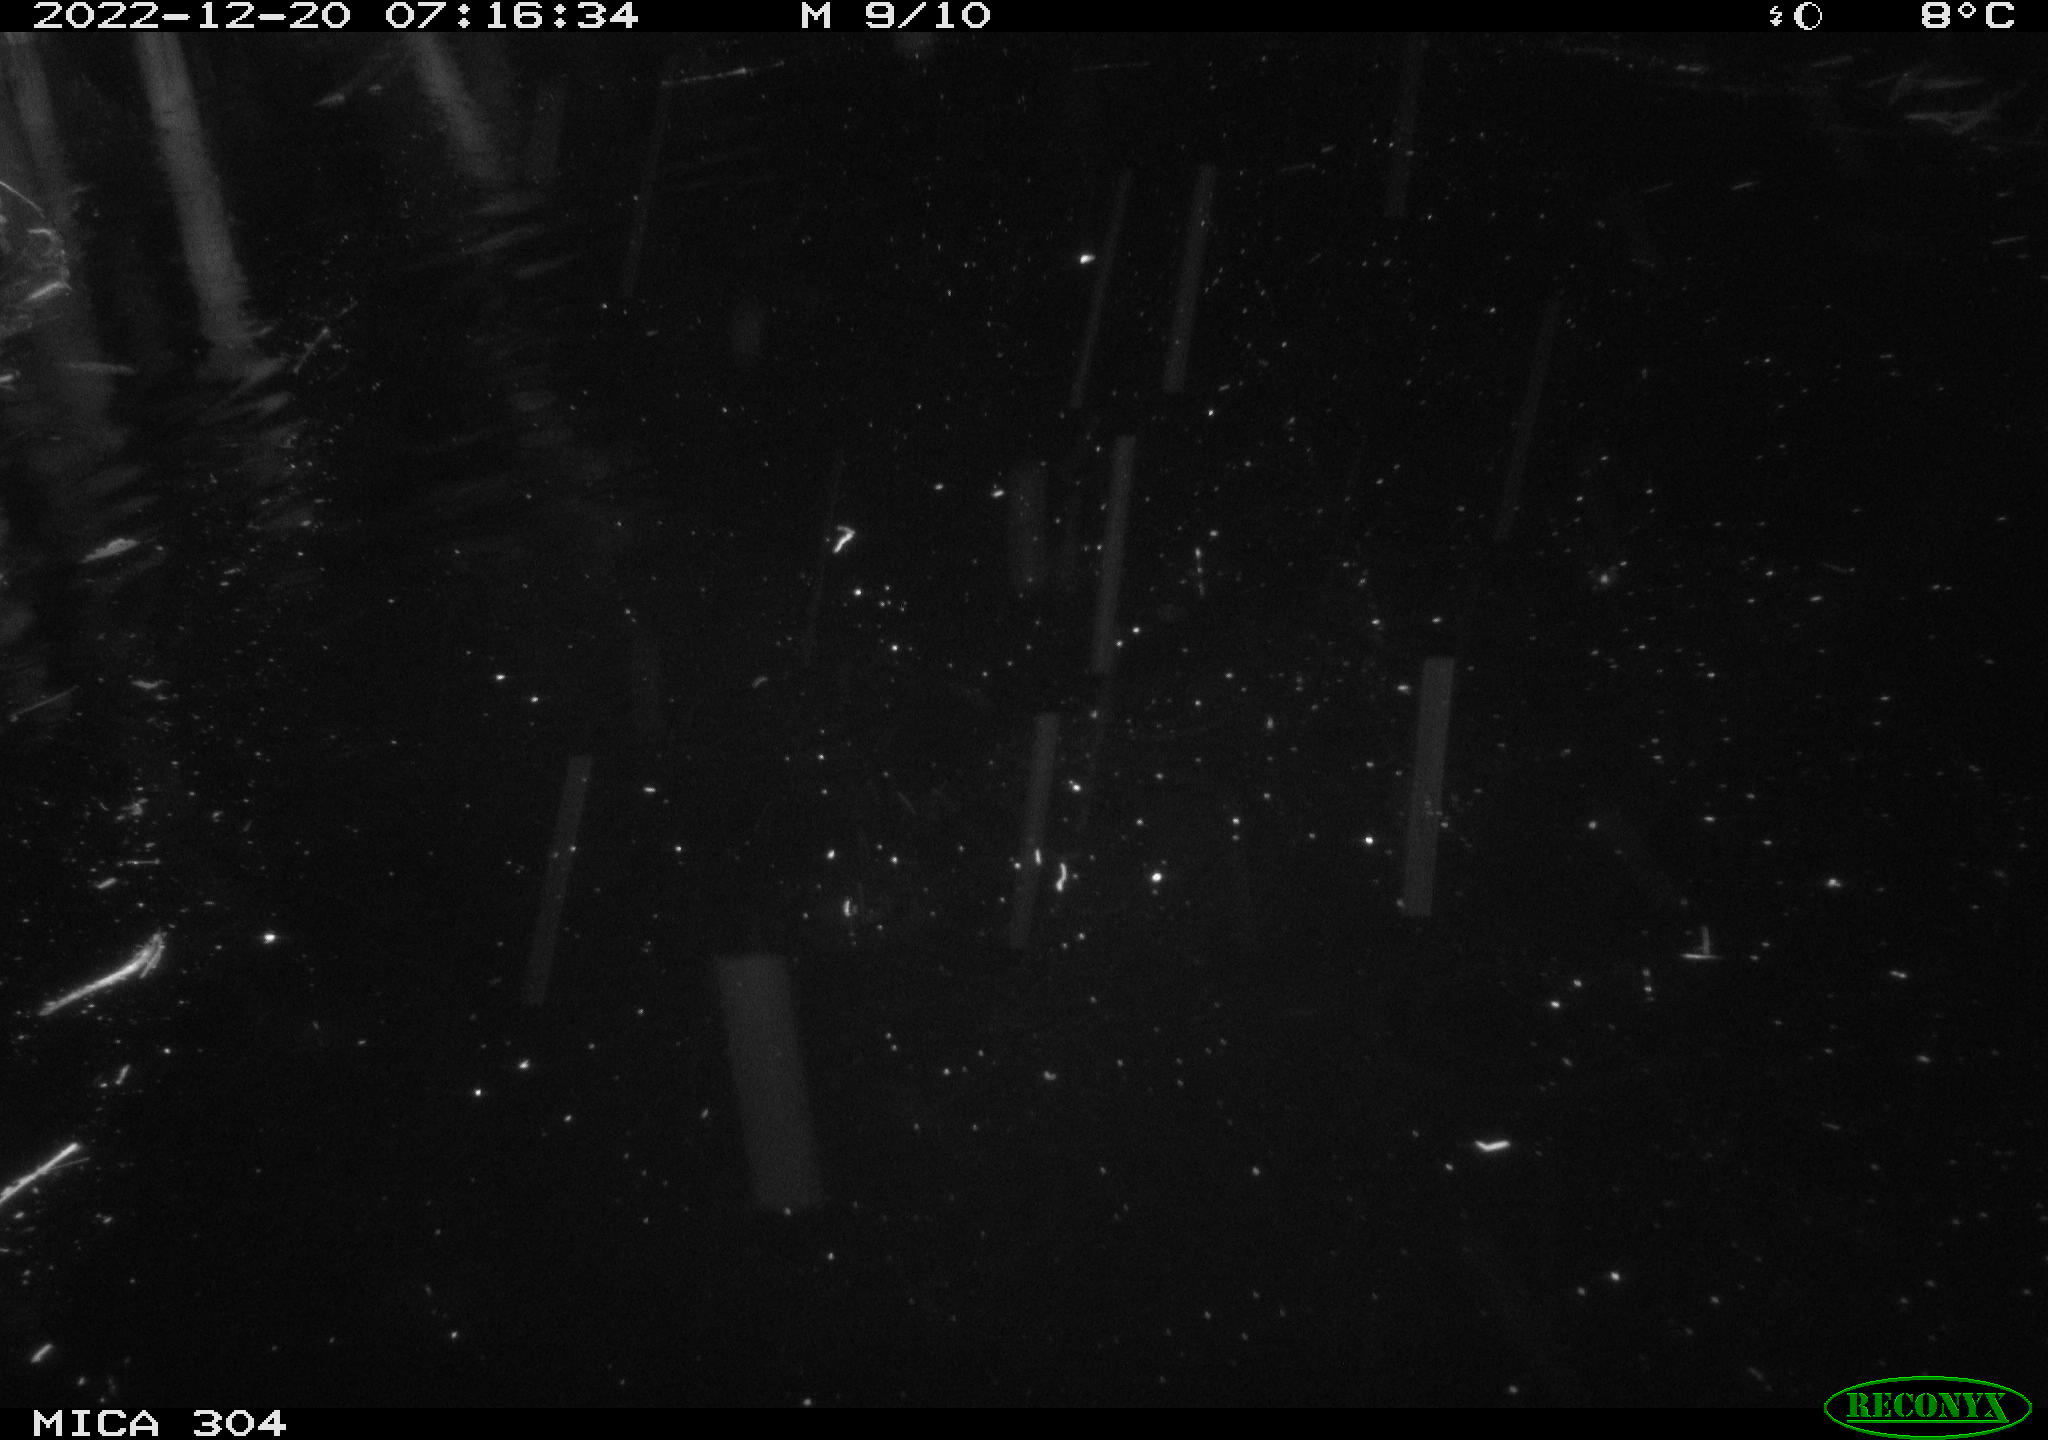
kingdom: Animalia
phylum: Chordata
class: Aves
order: Gruiformes
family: Rallidae
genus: Fulica
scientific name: Fulica atra
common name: Eurasian coot
